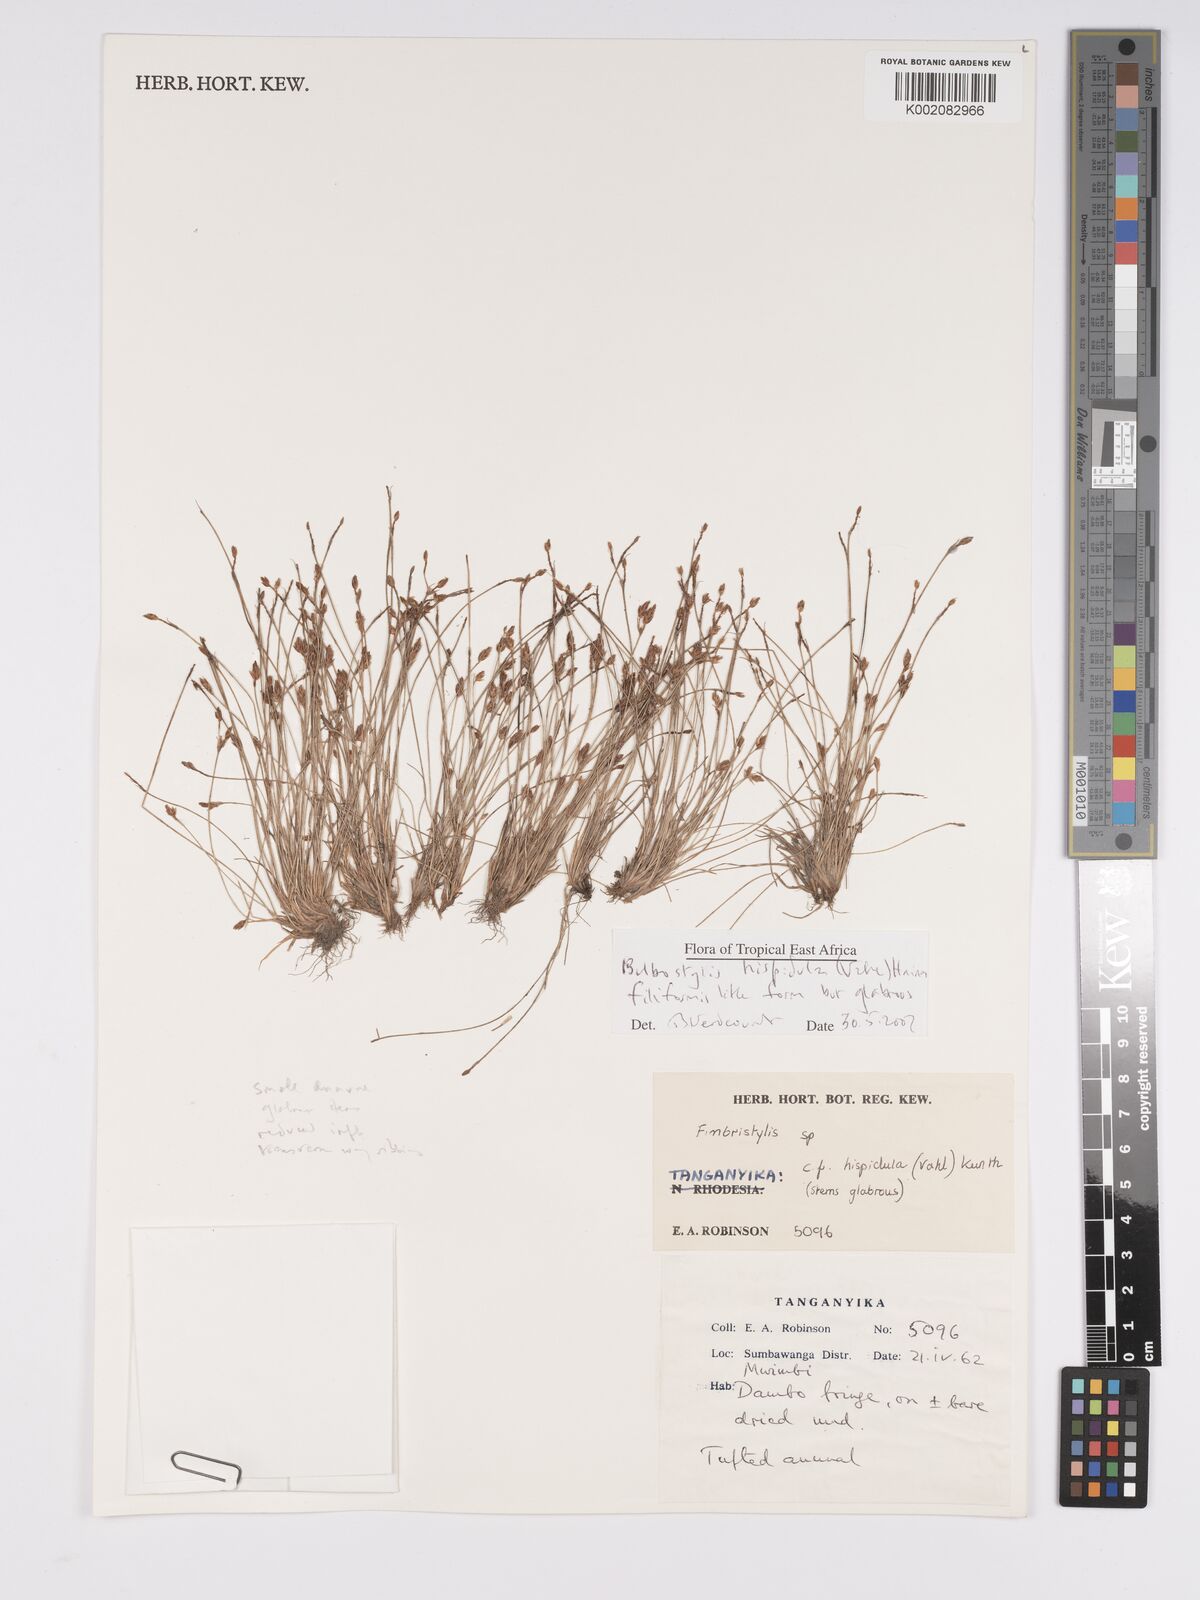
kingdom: Plantae
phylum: Tracheophyta
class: Liliopsida
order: Poales
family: Cyperaceae
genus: Bulbostylis
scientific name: Bulbostylis hispidula
